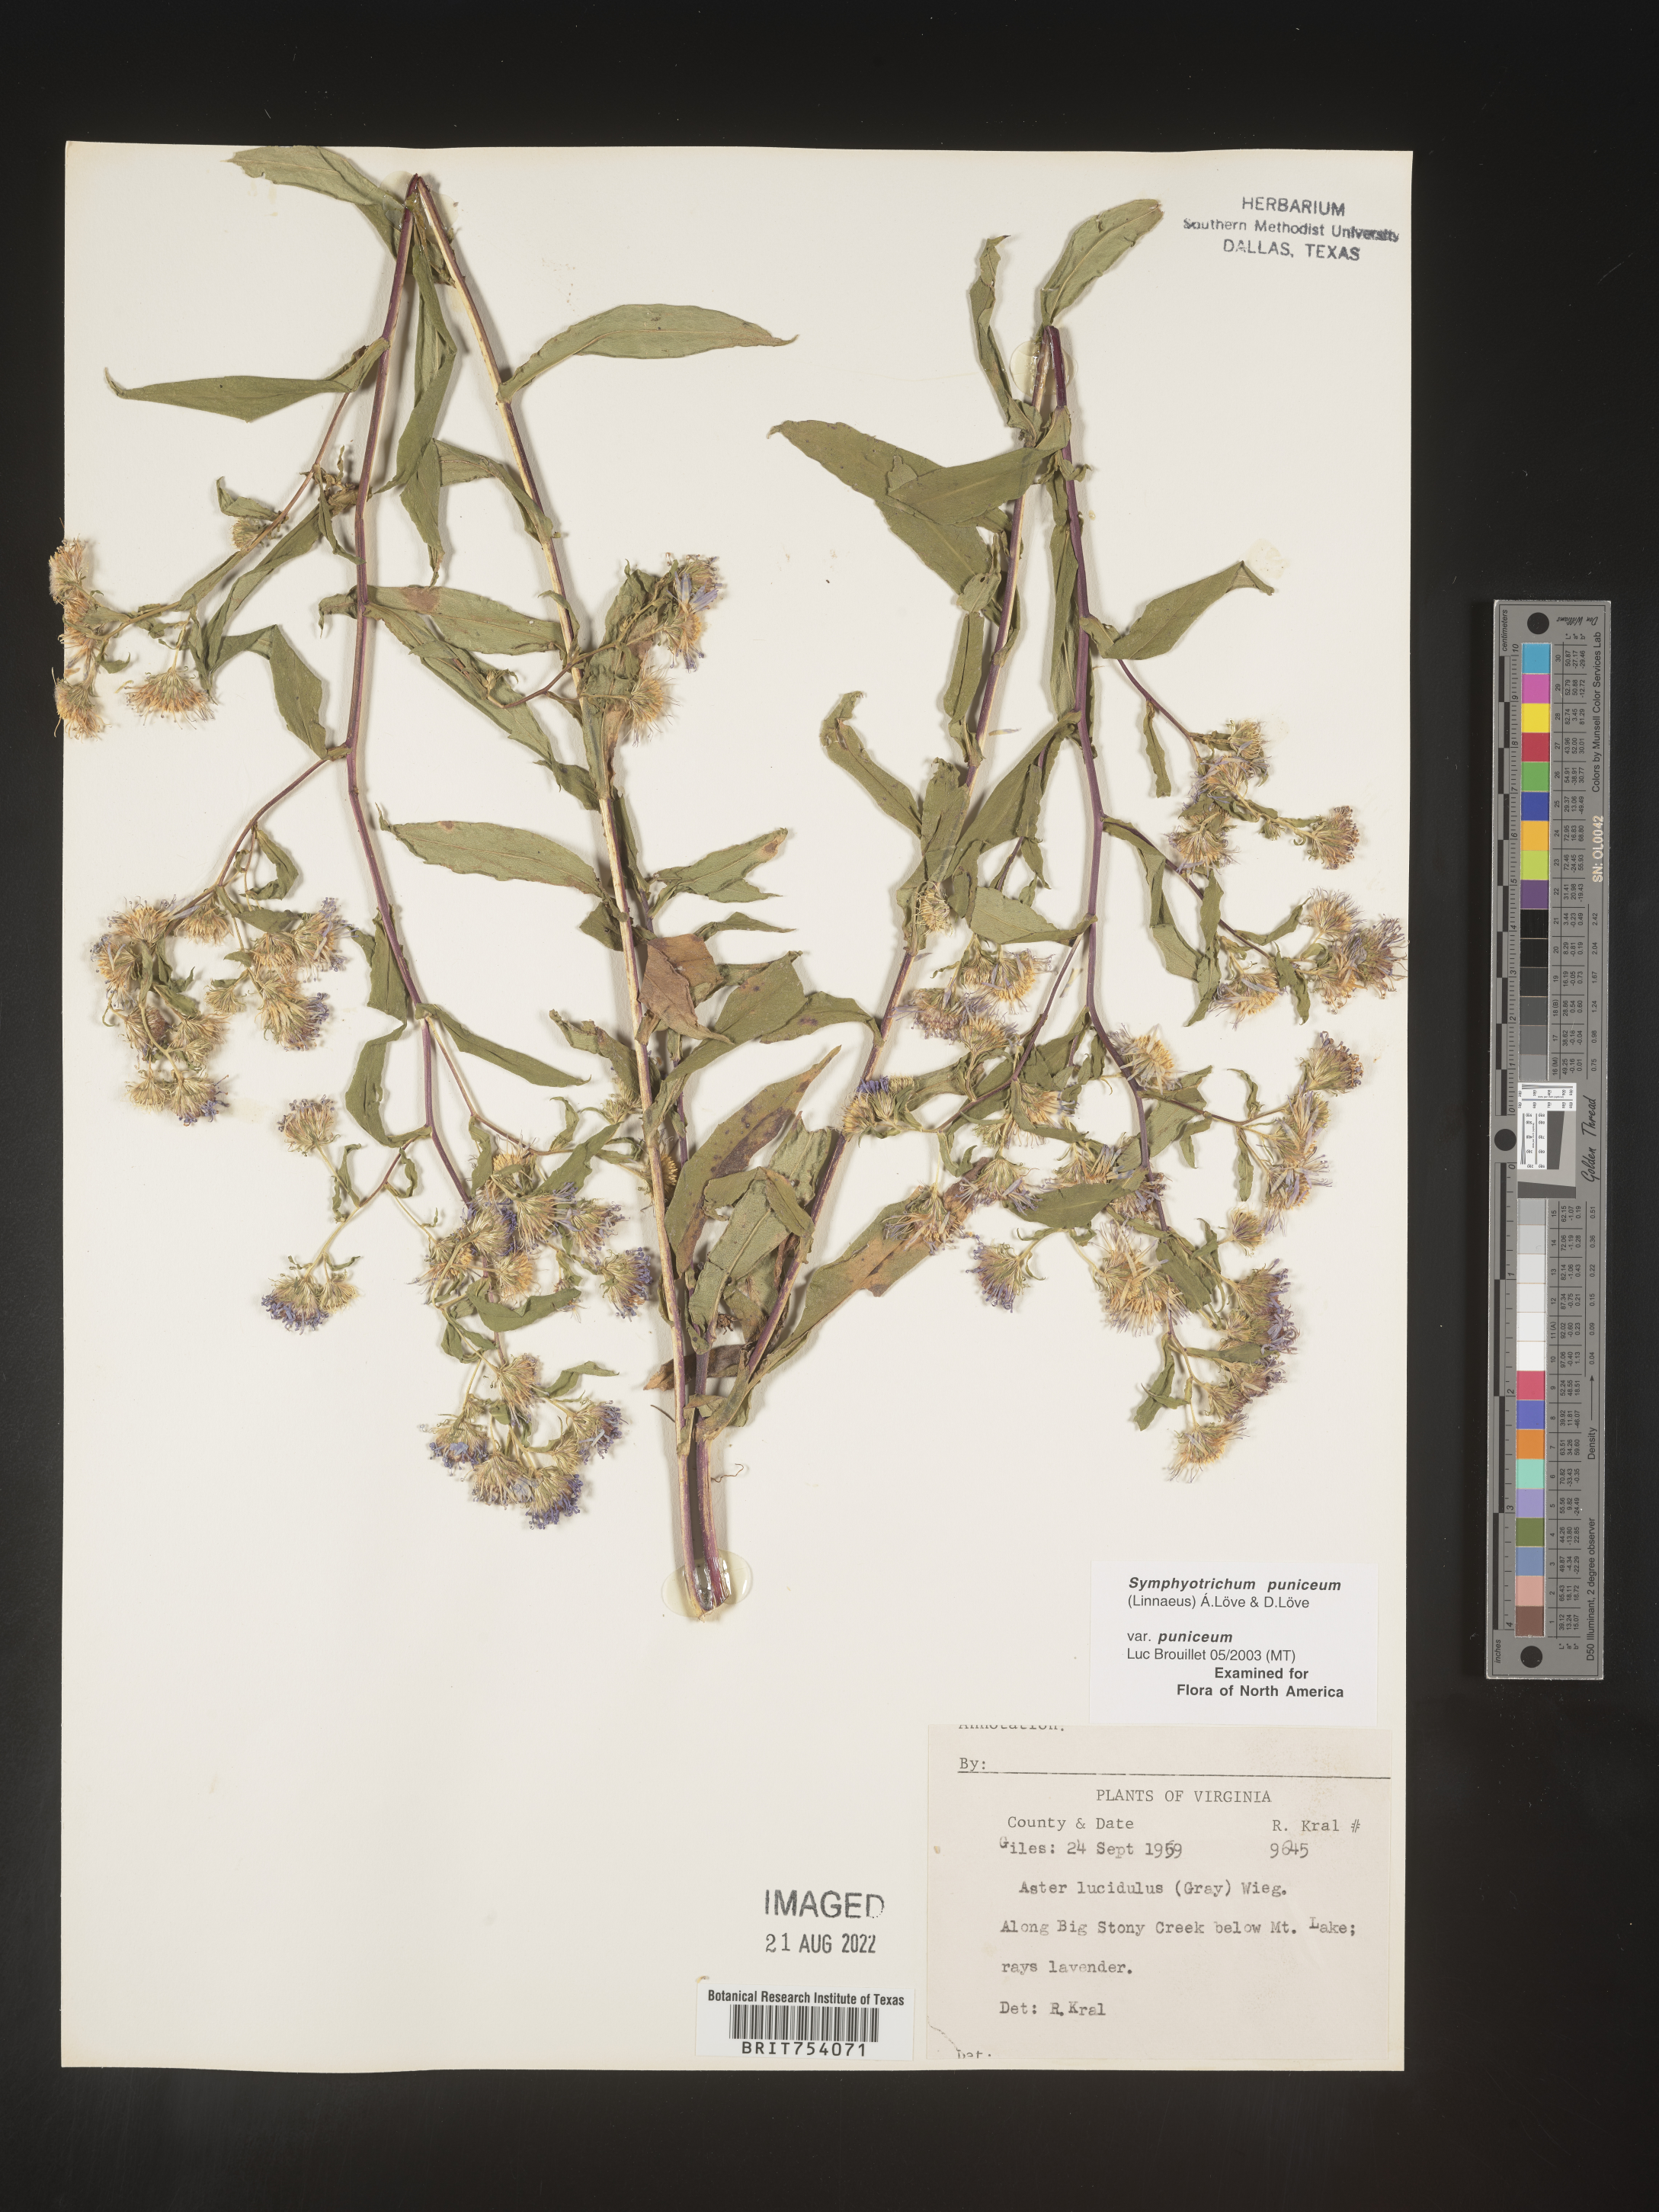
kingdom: Plantae
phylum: Tracheophyta
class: Magnoliopsida
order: Asterales
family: Asteraceae
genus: Symphyotrichum
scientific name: Symphyotrichum puniceum
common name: Bog aster
